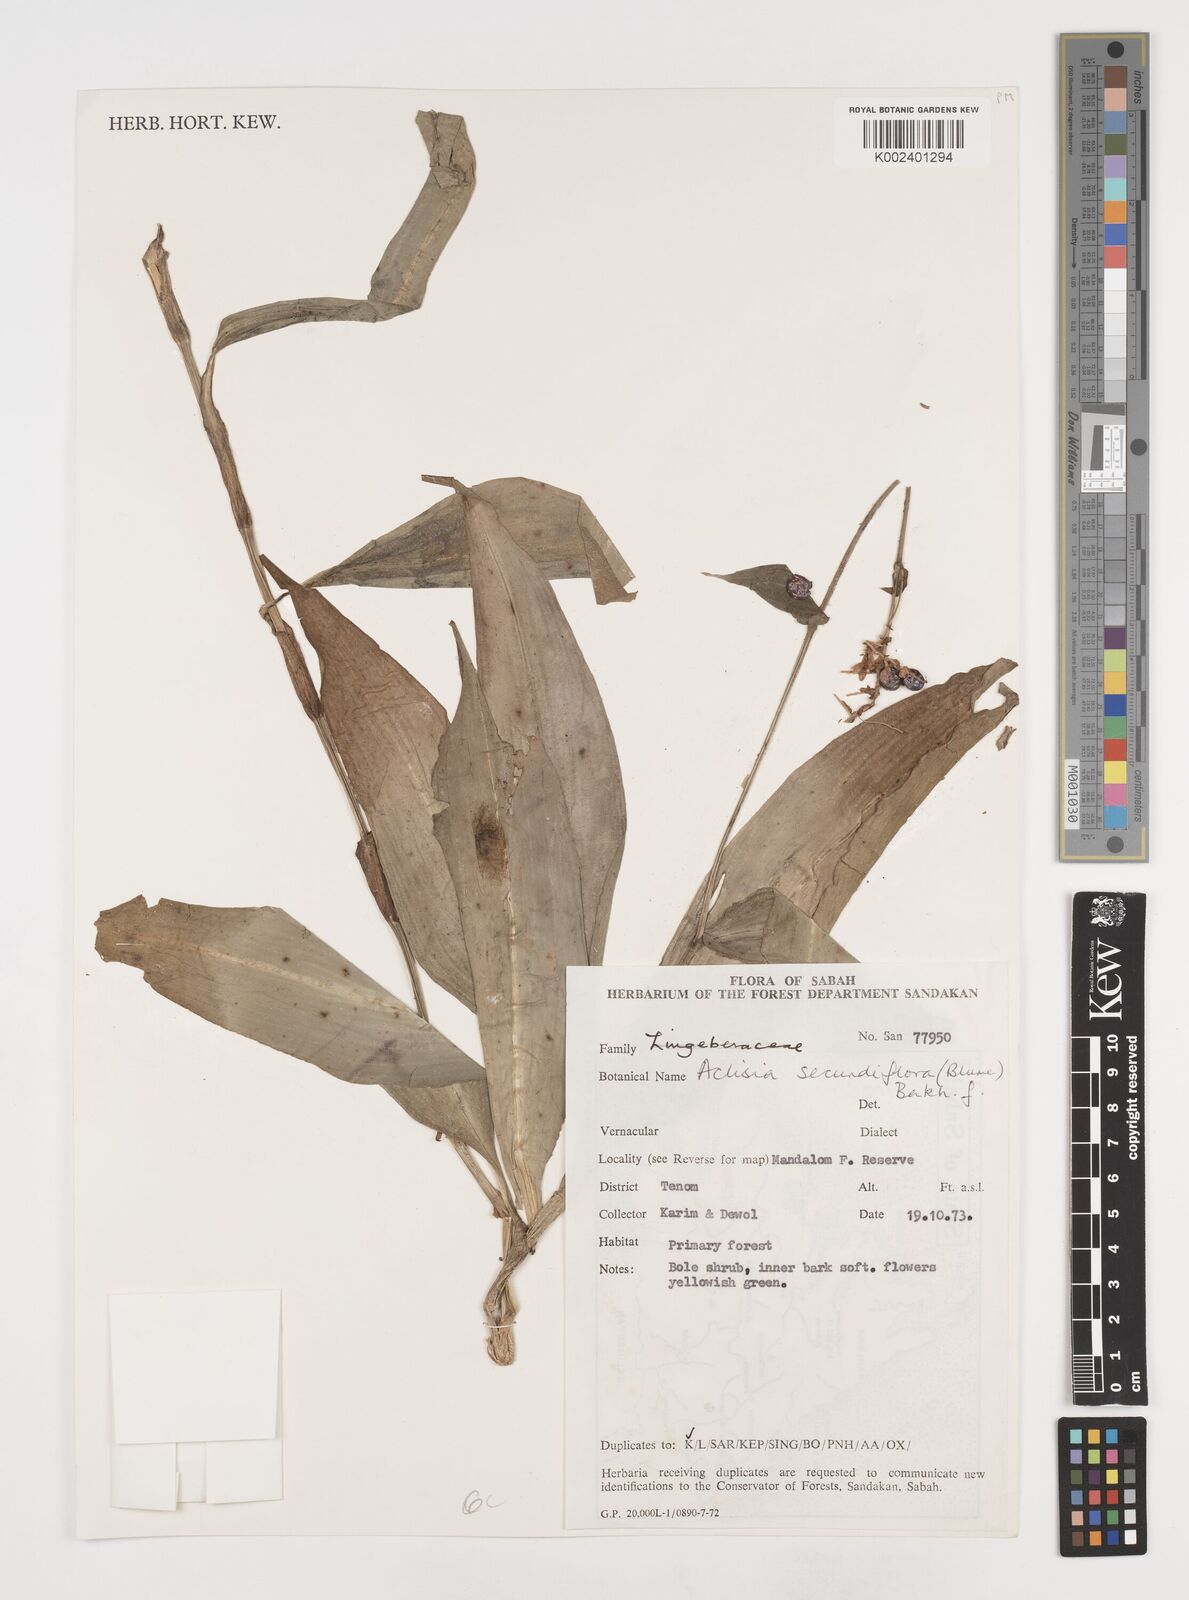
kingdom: Plantae
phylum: Tracheophyta
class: Liliopsida
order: Commelinales
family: Commelinaceae
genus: Pollia
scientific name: Pollia secundiflora
